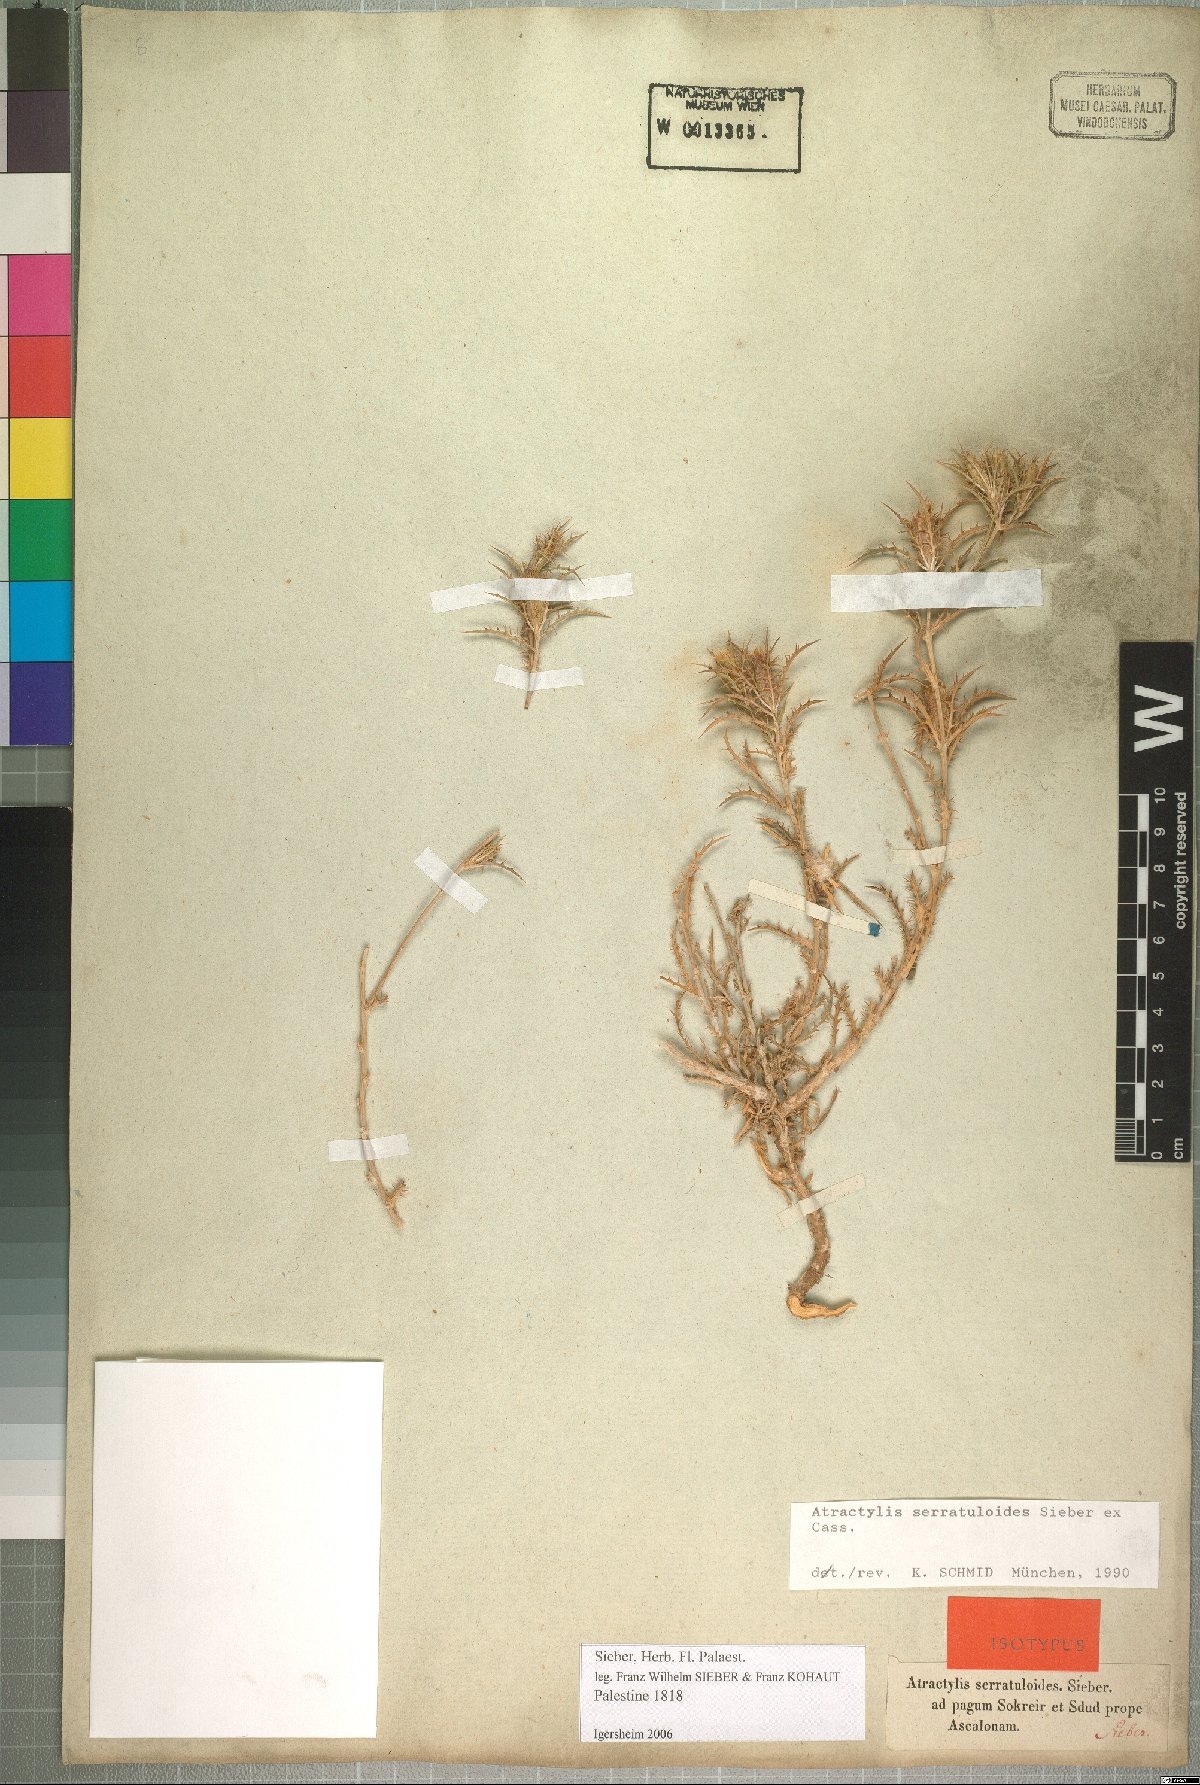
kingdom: Plantae
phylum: Tracheophyta
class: Magnoliopsida
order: Asterales
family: Asteraceae
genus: Atractylis
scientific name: Atractylis serratuloides
